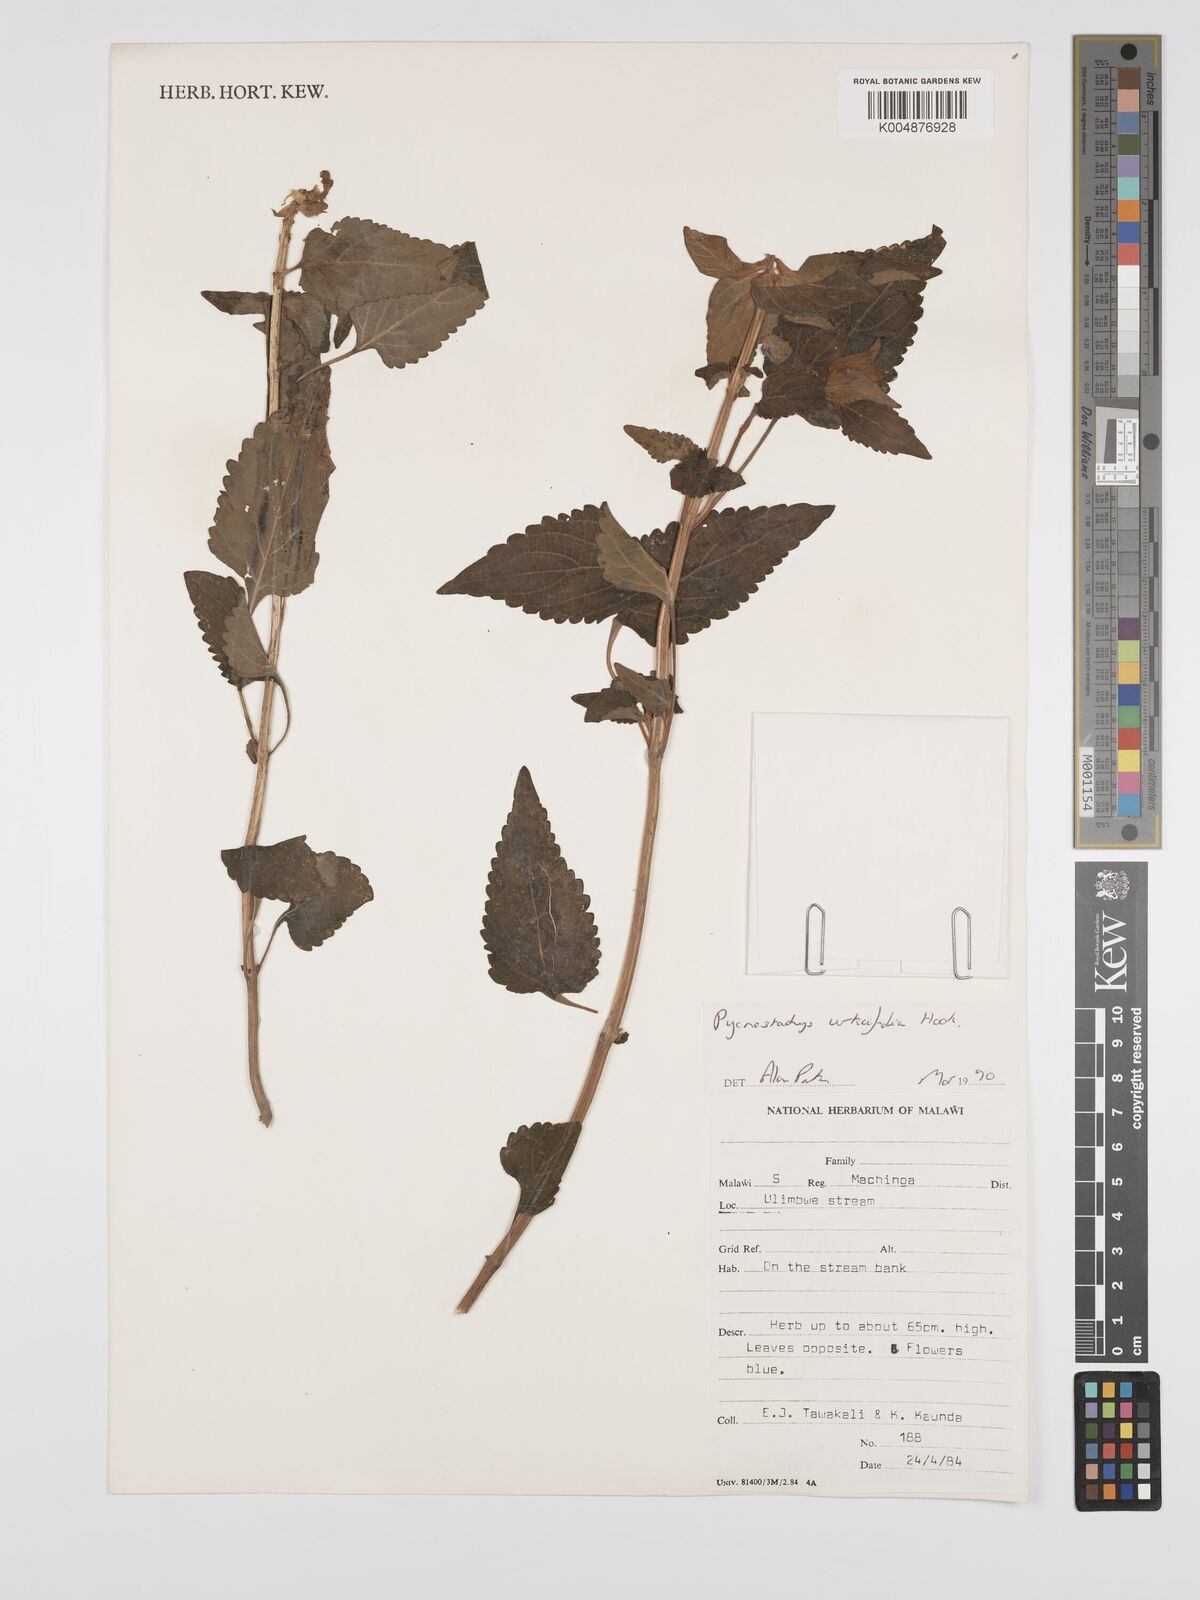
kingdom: Plantae
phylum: Tracheophyta
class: Magnoliopsida
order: Lamiales
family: Lamiaceae
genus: Coleus
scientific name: Coleus livingstonei
